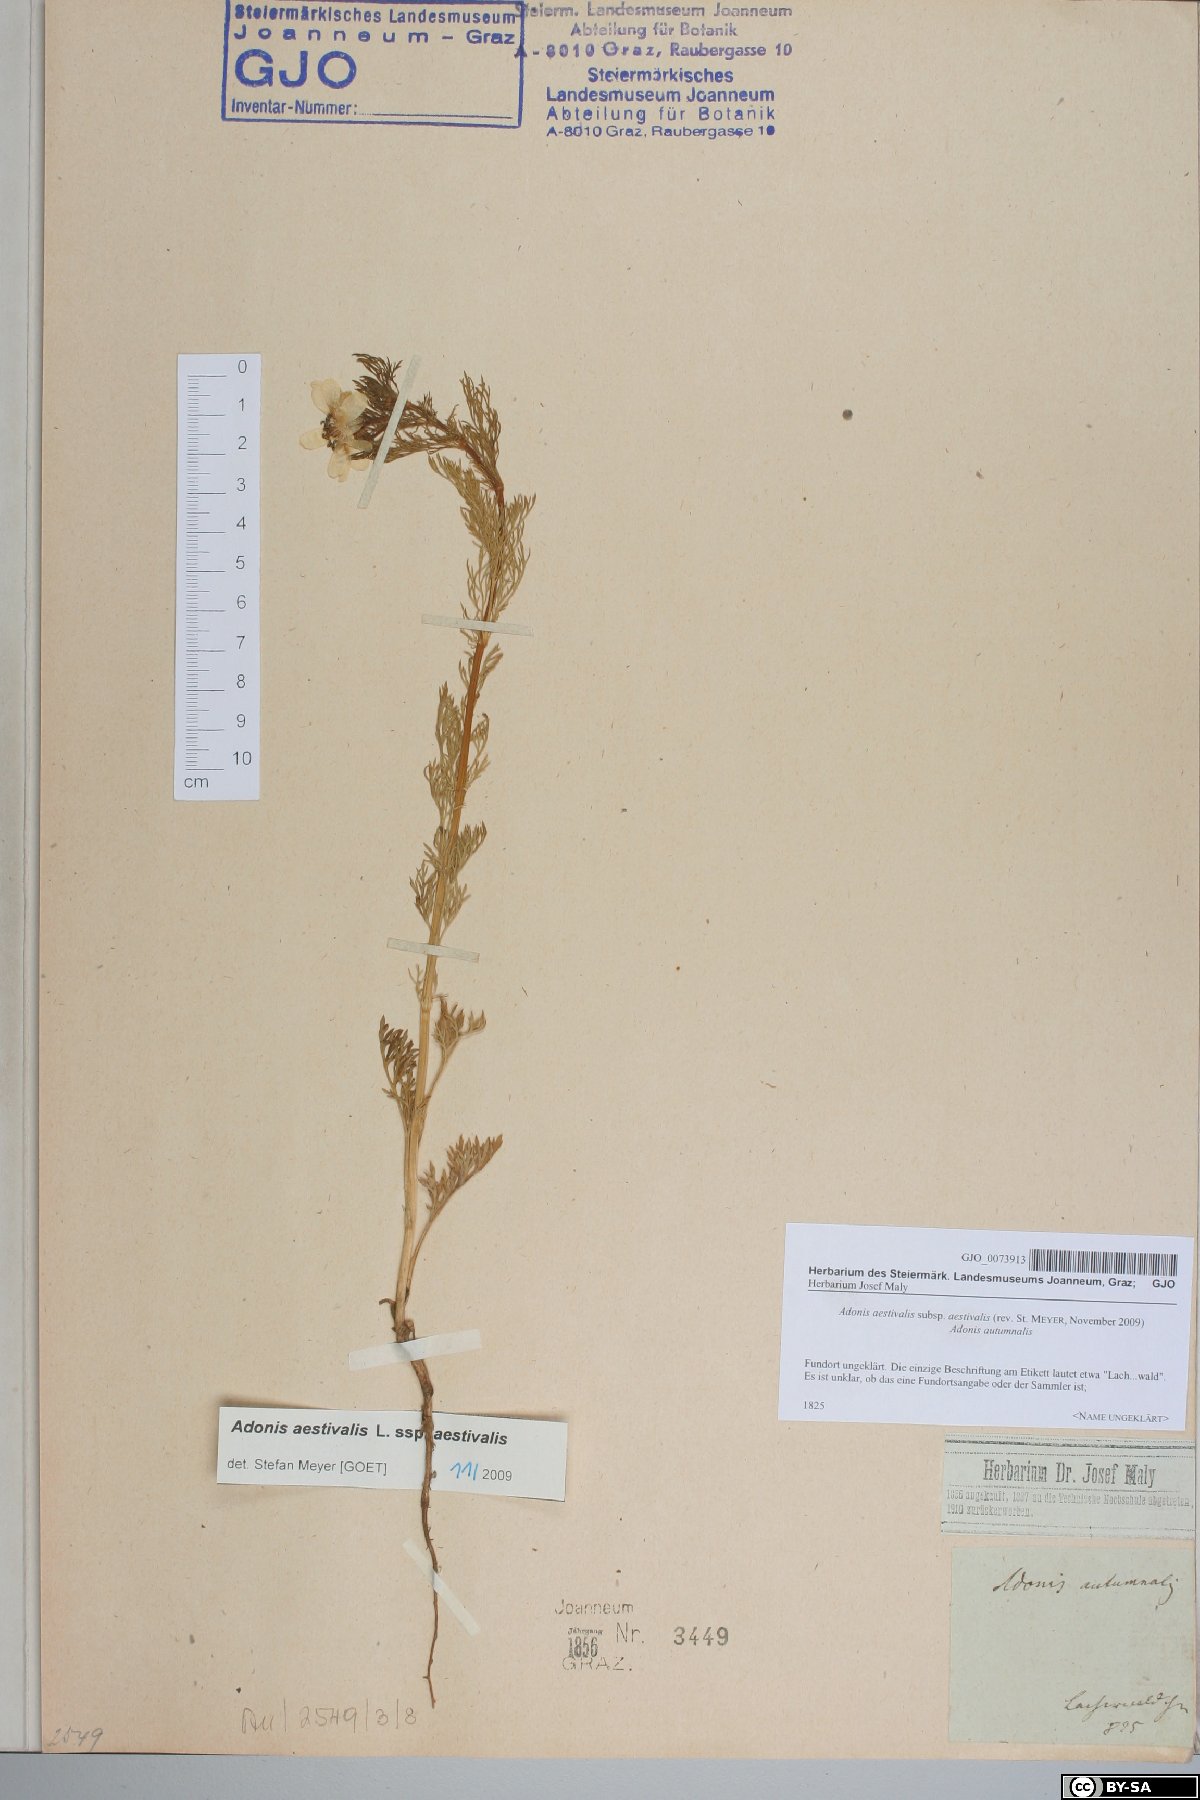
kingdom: Plantae
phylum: Tracheophyta
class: Magnoliopsida
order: Ranunculales
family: Ranunculaceae
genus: Adonis
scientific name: Adonis aestivalis
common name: Summer pheasant's-eye
